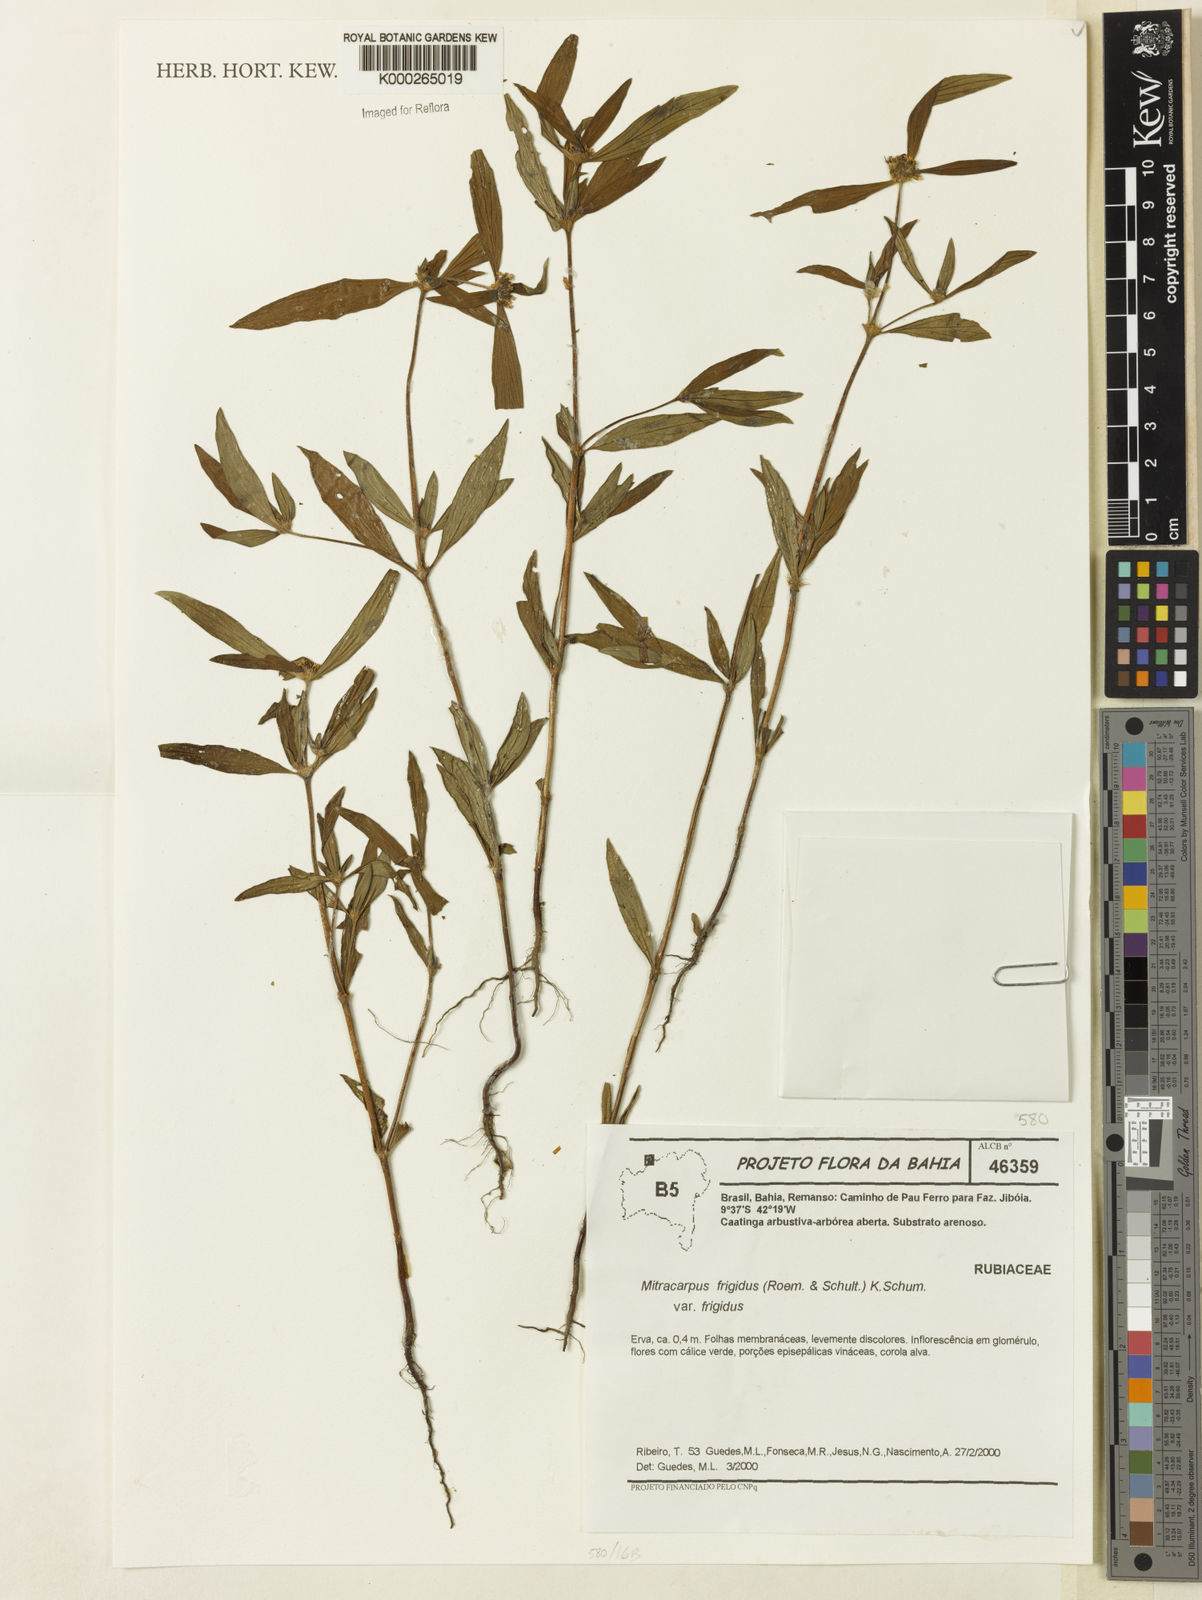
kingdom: Plantae
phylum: Tracheophyta
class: Magnoliopsida
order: Gentianales
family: Rubiaceae
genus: Mitracarpus
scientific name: Mitracarpus frigidus
